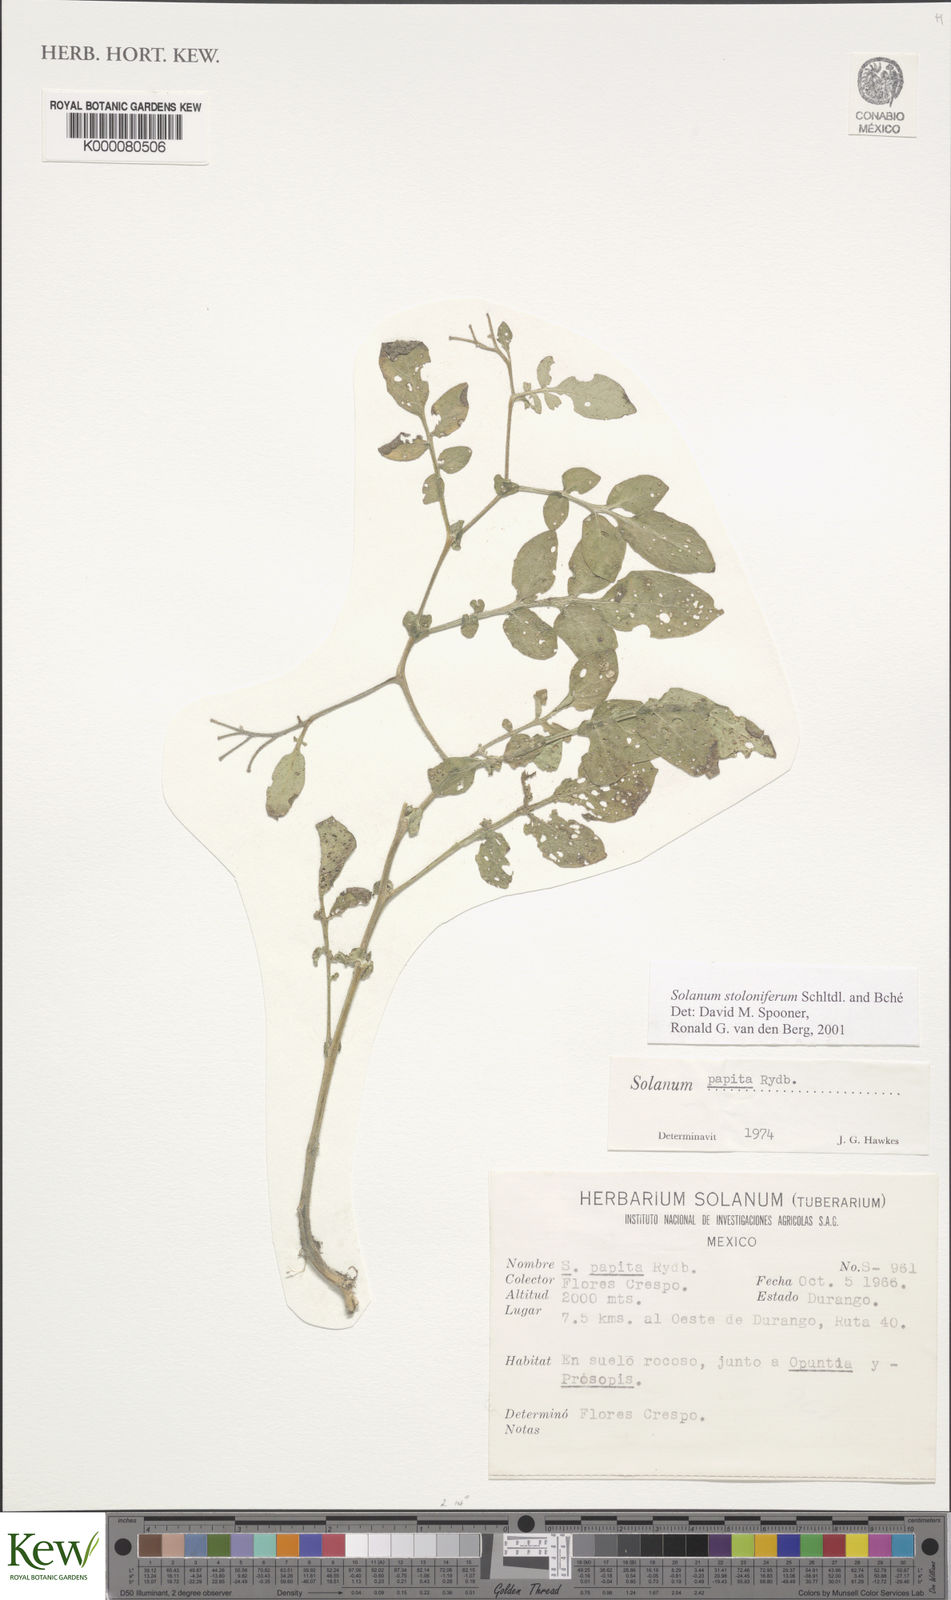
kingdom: Plantae
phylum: Tracheophyta
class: Magnoliopsida
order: Solanales
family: Solanaceae
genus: Solanum
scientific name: Solanum stoloniferum
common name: Fendler's nighshade
